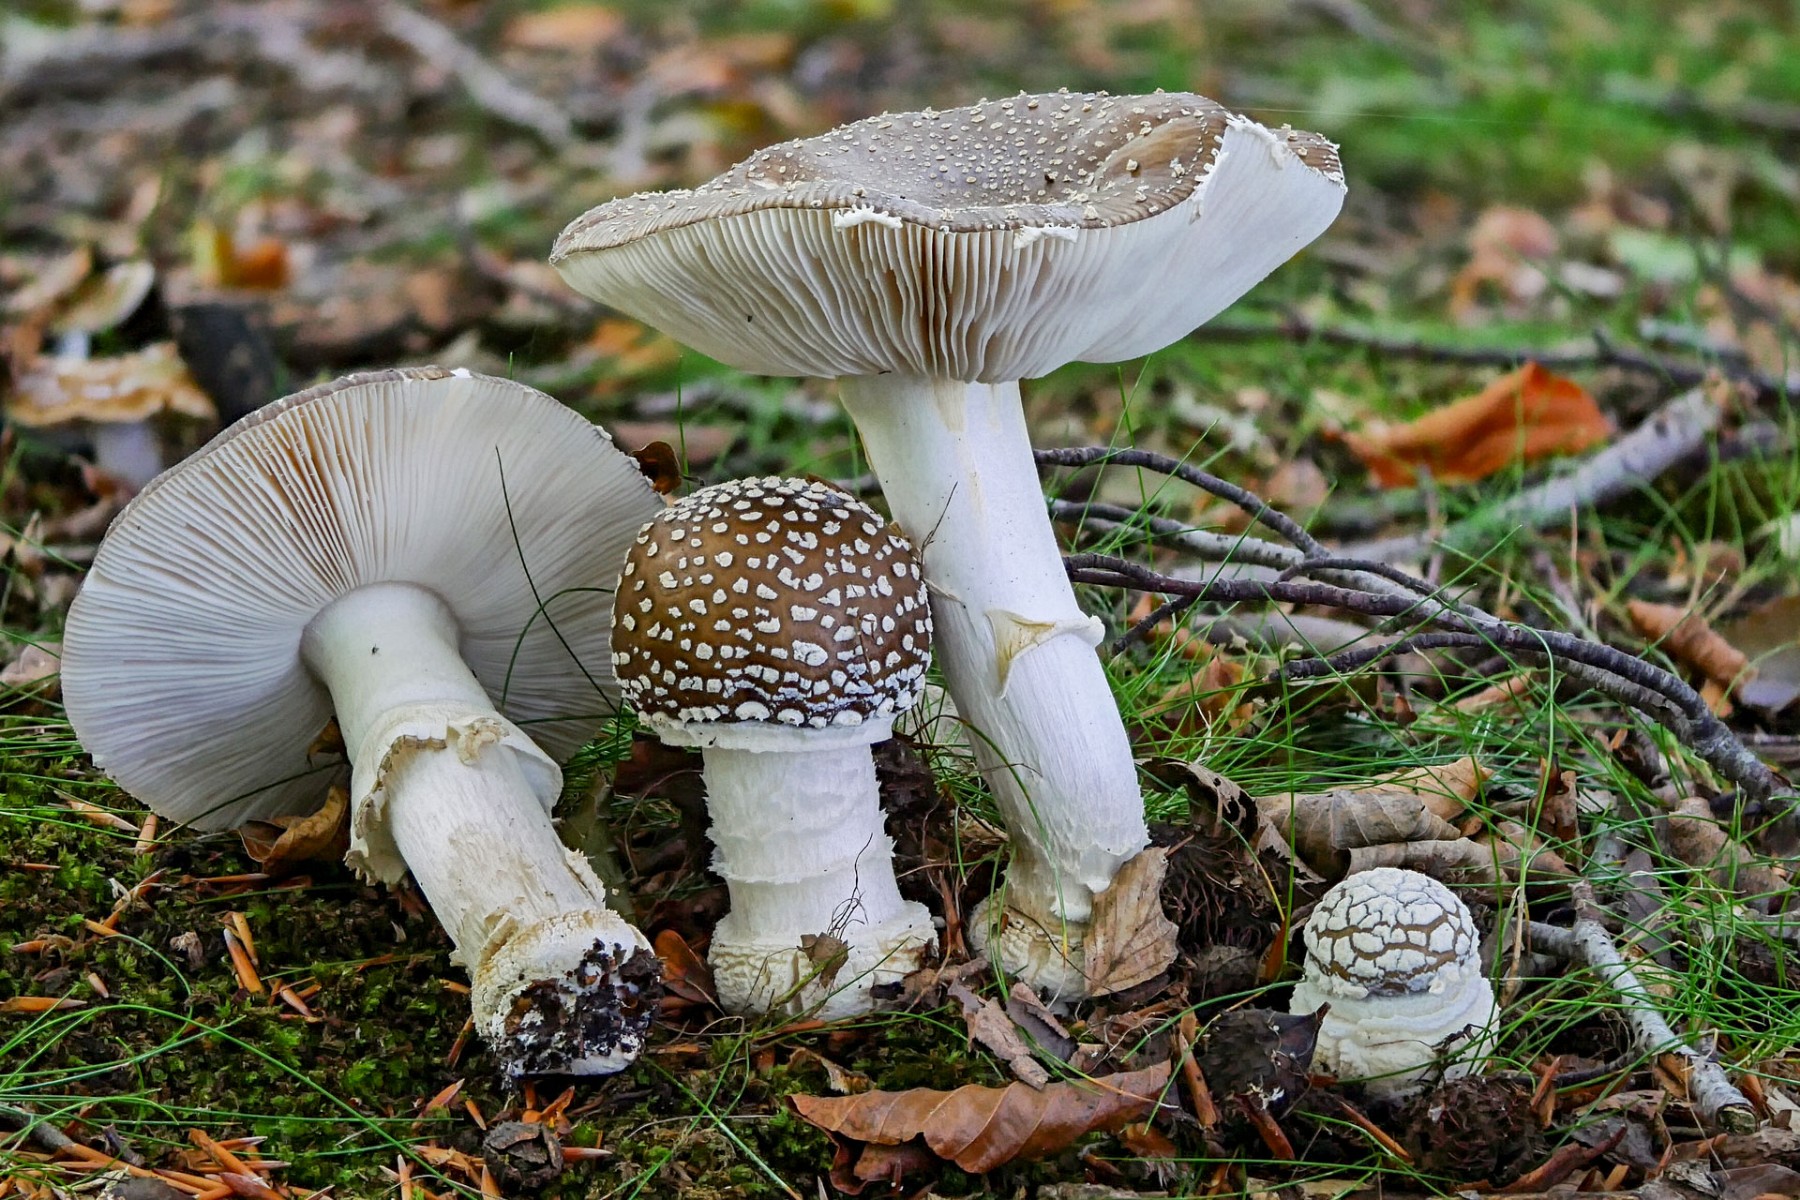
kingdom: Fungi
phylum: Basidiomycota
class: Agaricomycetes
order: Agaricales
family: Amanitaceae
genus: Amanita
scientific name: Amanita pantherina
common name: panter-fluesvamp
